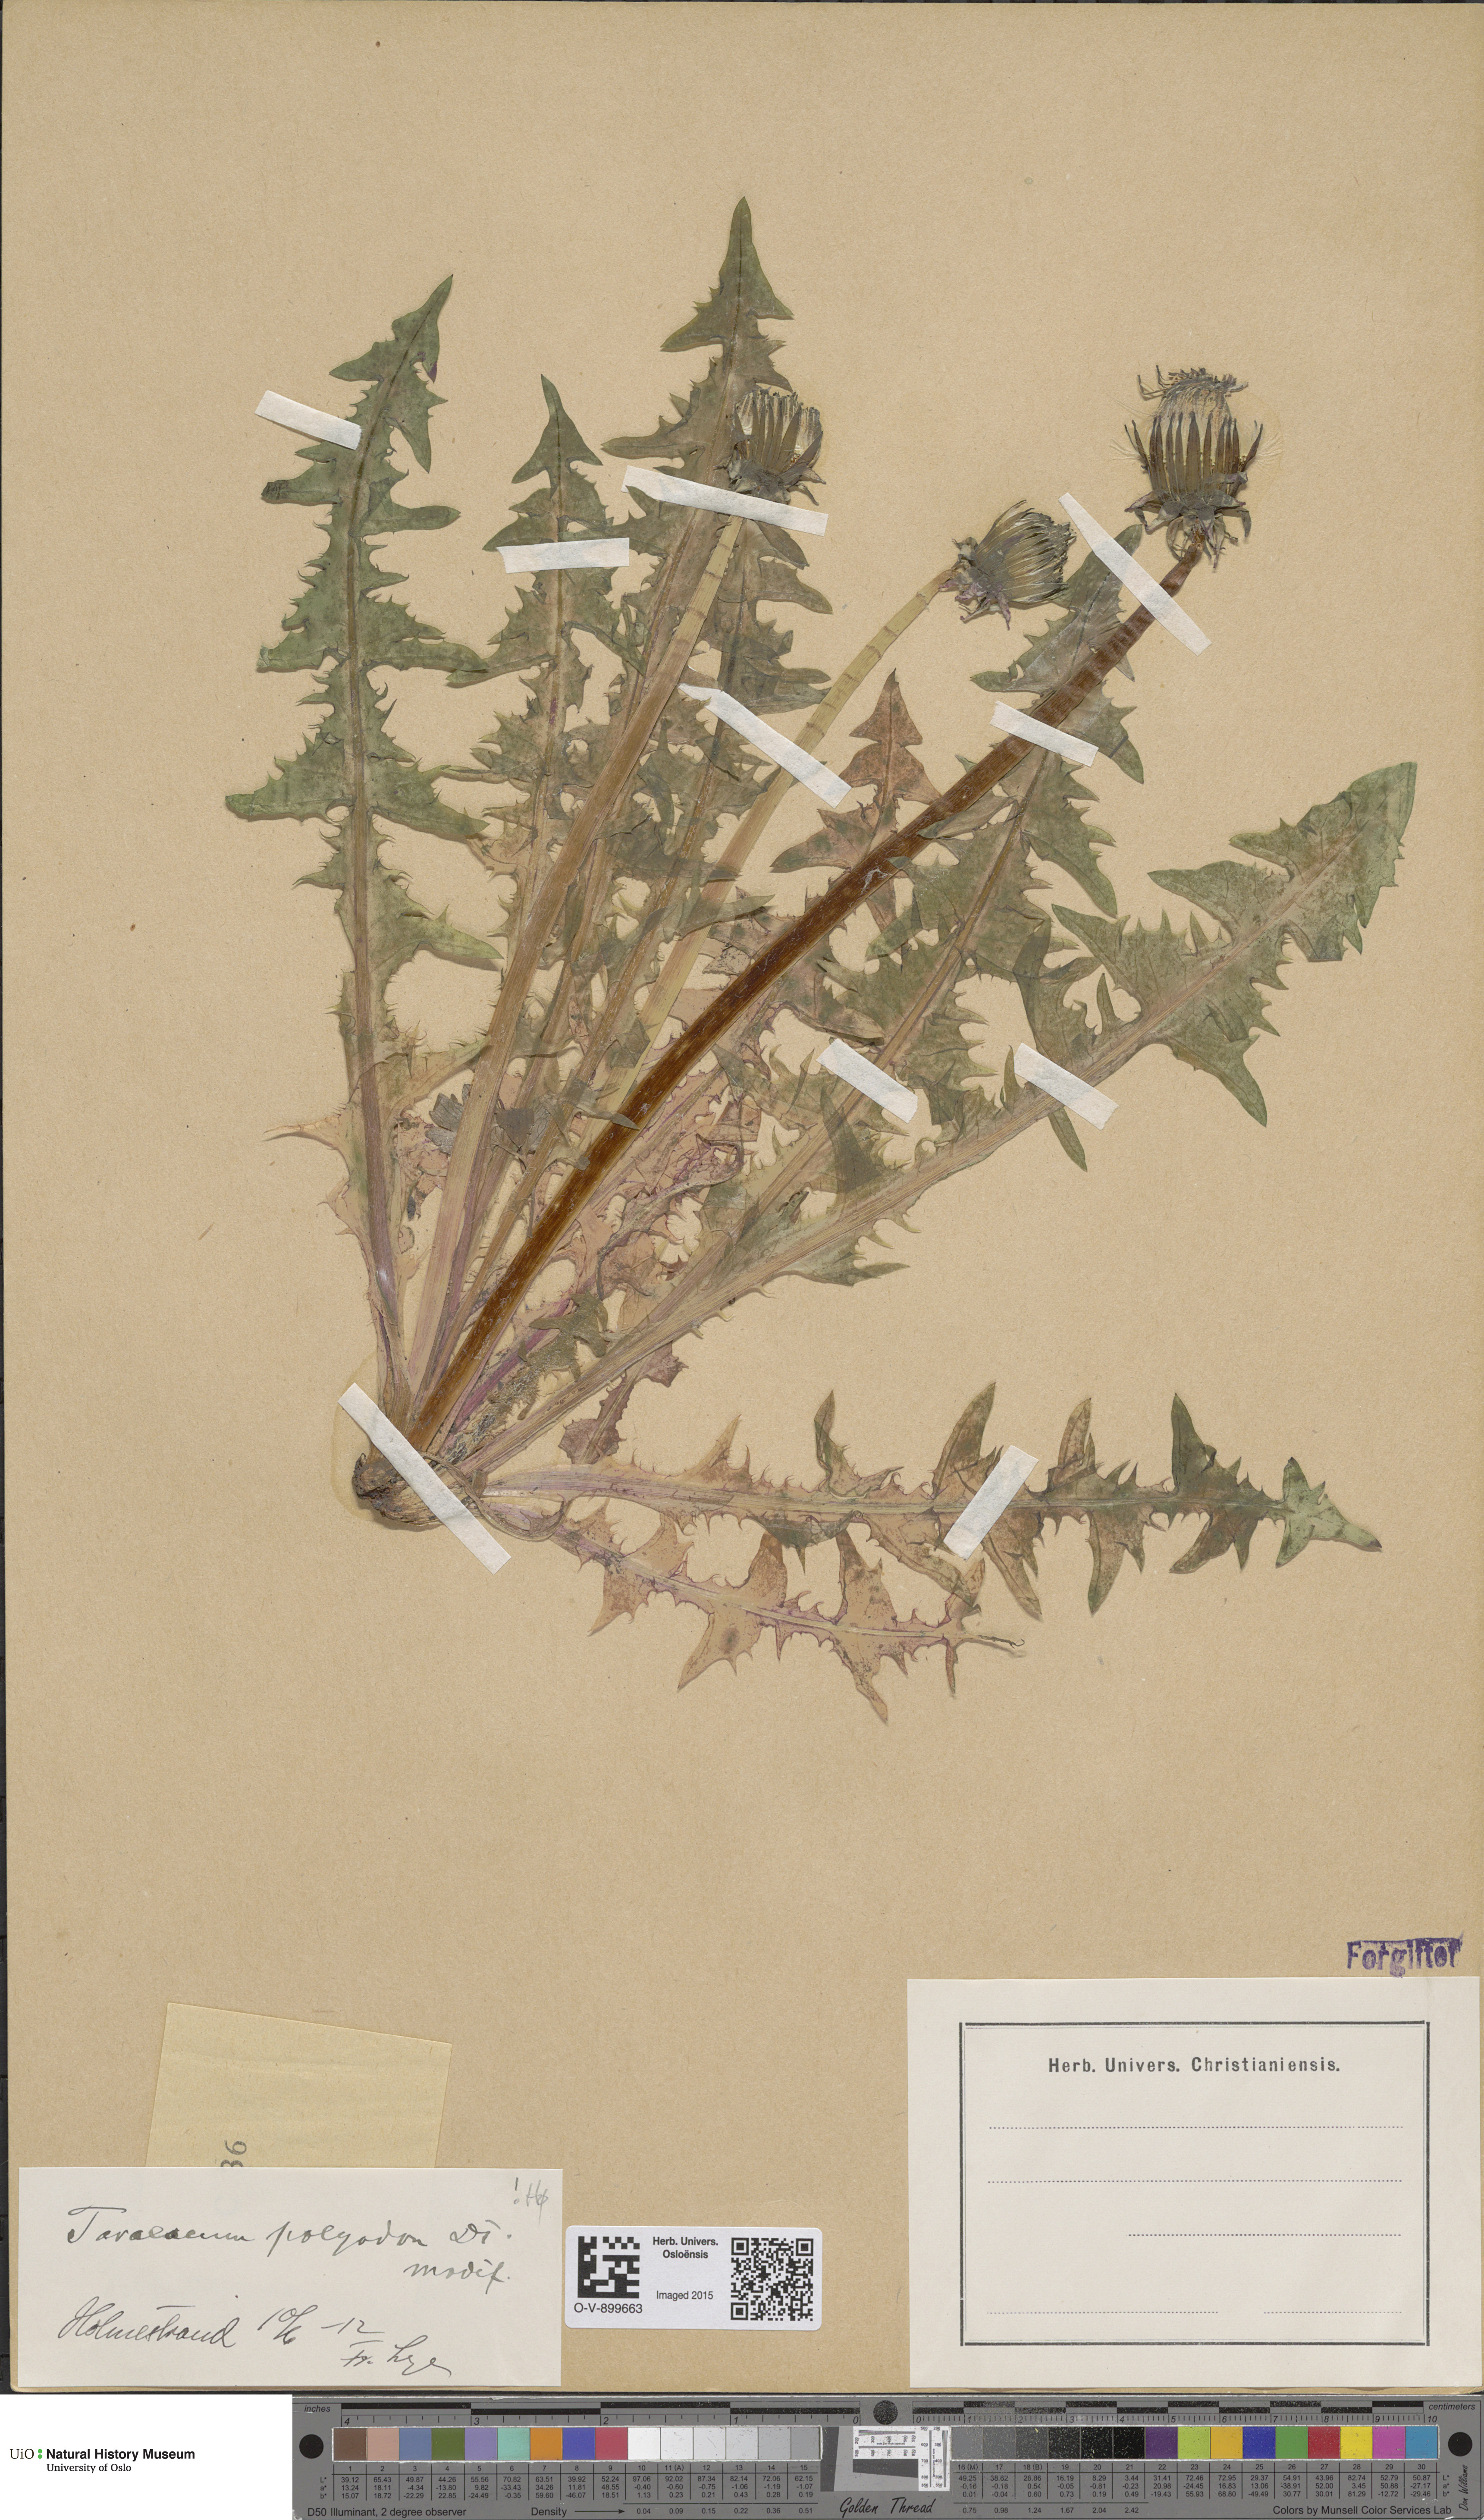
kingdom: Plantae
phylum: Tracheophyta
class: Magnoliopsida
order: Asterales
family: Asteraceae
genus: Taraxacum
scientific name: Taraxacum polyodon
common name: Common dandelion
